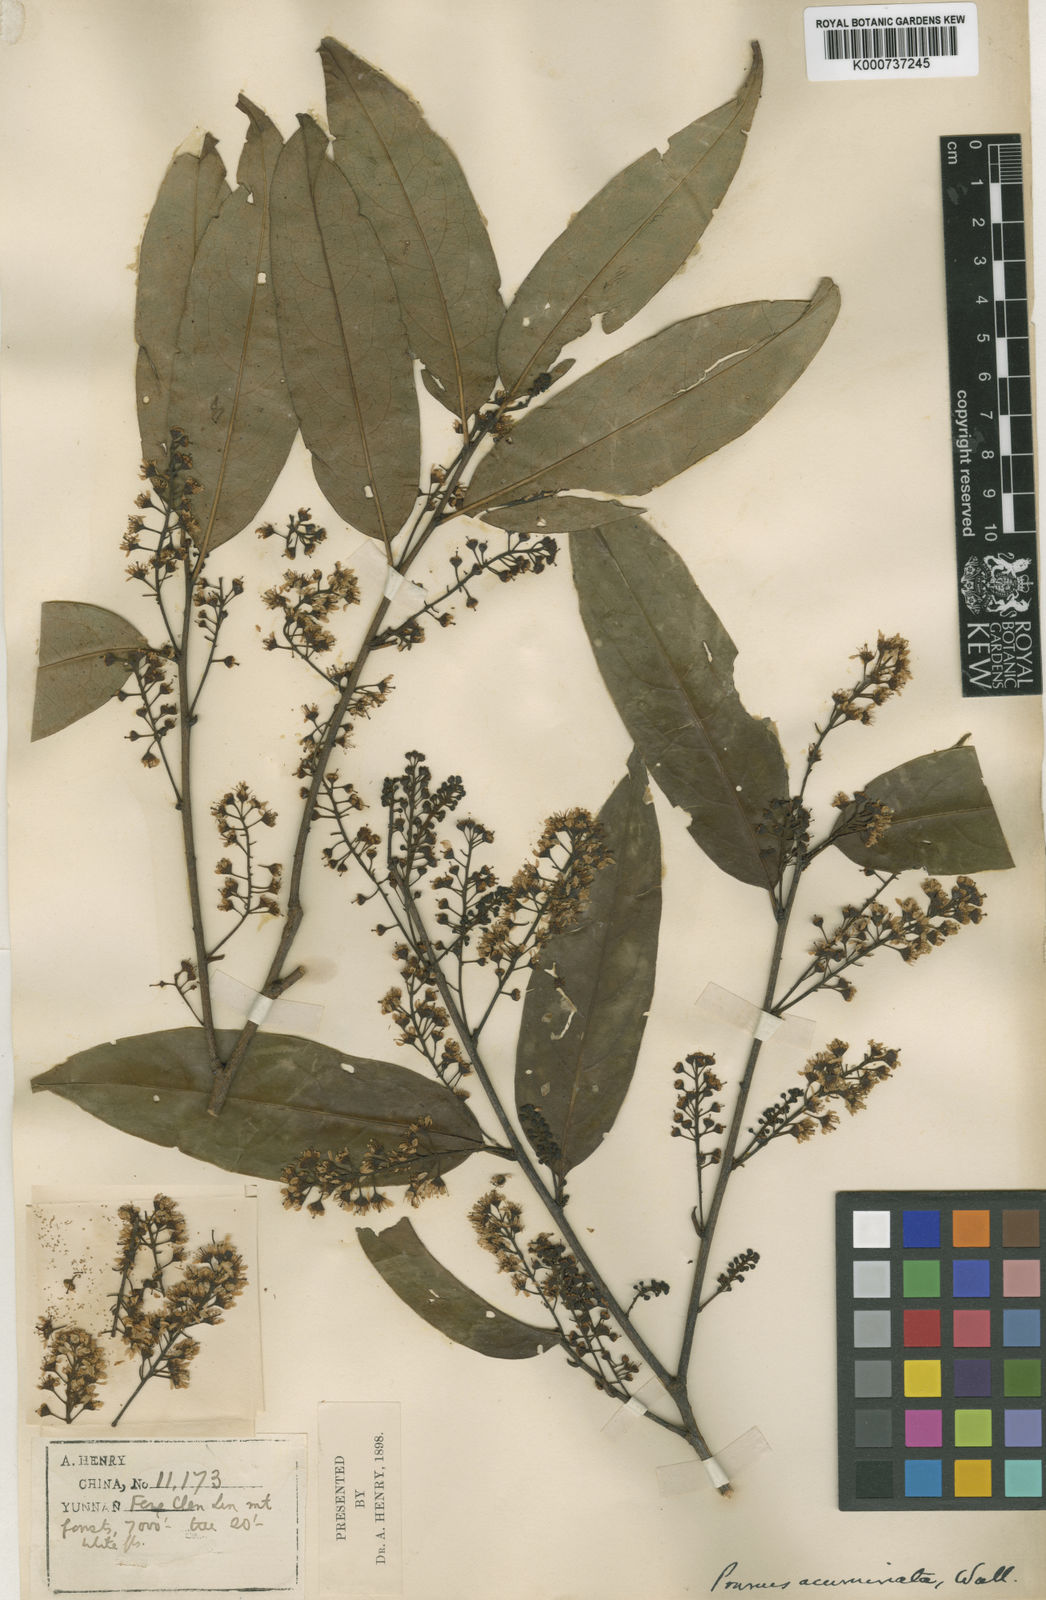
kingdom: Plantae
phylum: Tracheophyta
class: Magnoliopsida
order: Rosales
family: Rosaceae
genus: Prunus
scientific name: Prunus undulata
